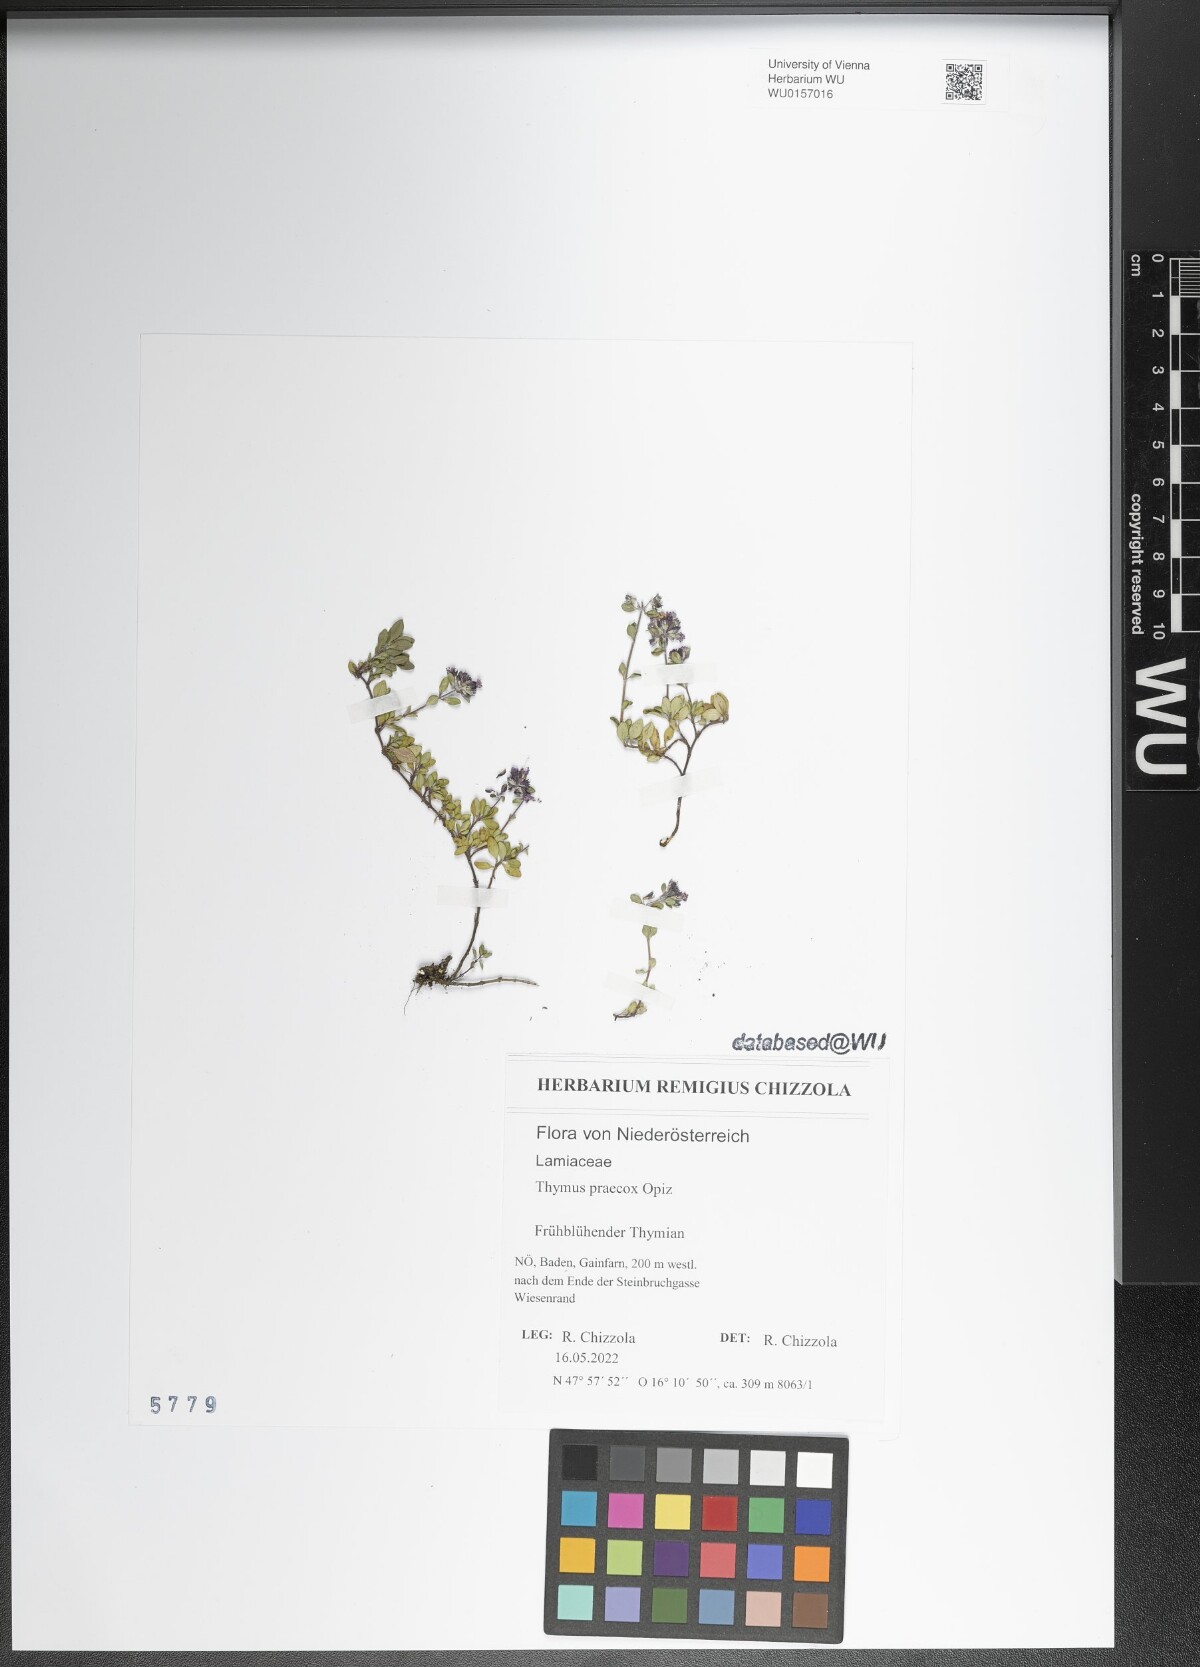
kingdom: Plantae
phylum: Tracheophyta
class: Magnoliopsida
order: Lamiales
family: Lamiaceae
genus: Thymus
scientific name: Thymus praecox
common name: Wild thyme
